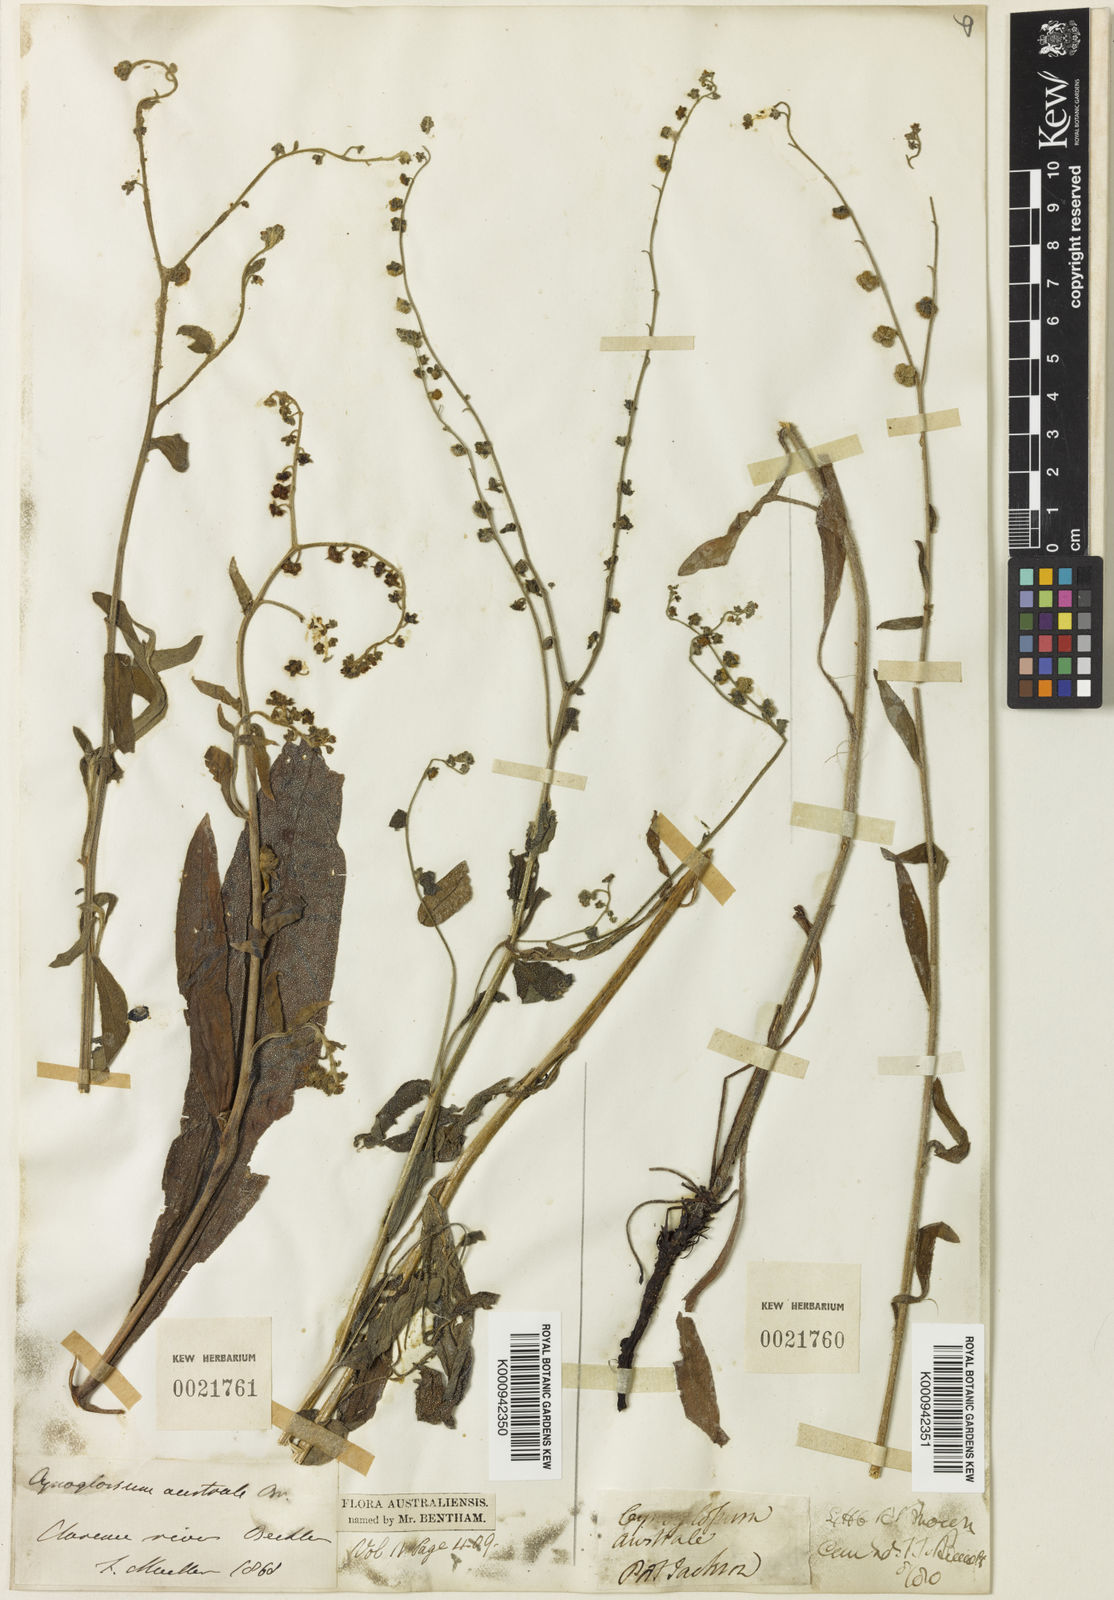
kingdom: Plantae
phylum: Tracheophyta
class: Magnoliopsida
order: Boraginales
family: Boraginaceae
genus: Cynoglossum
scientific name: Cynoglossum australe
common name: Australian hound's-tongue
